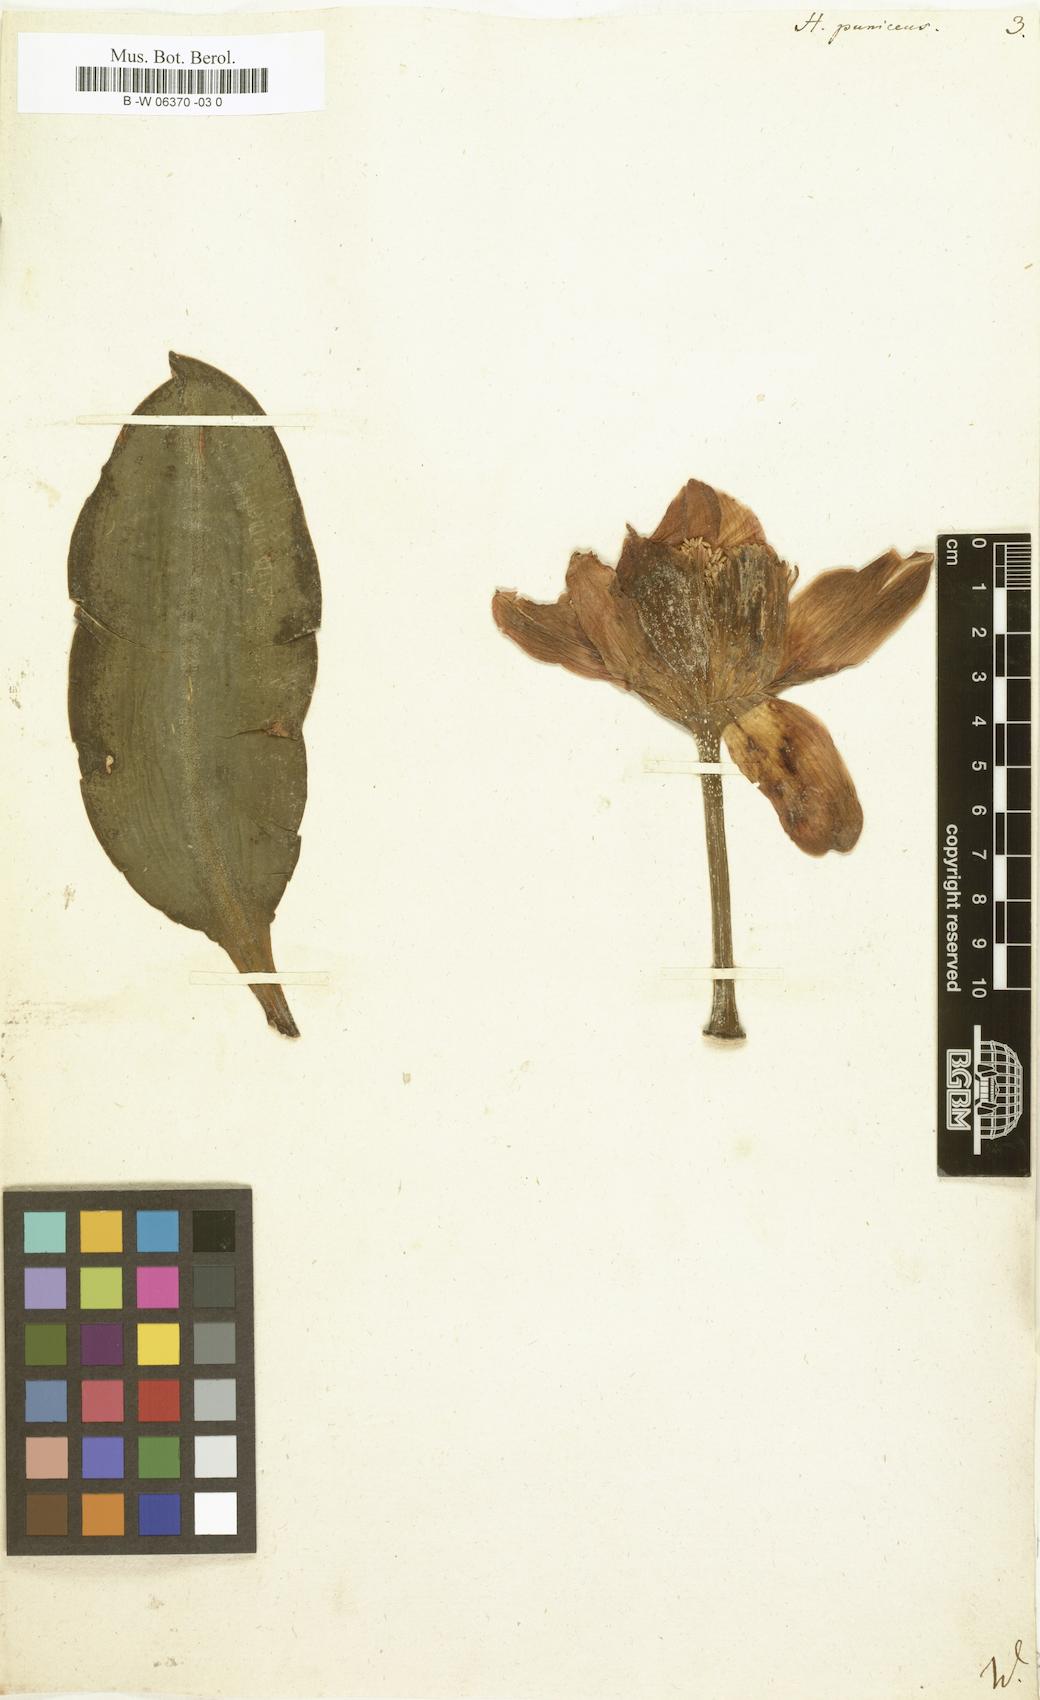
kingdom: Plantae
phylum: Tracheophyta
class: Liliopsida
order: Asparagales
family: Amaryllidaceae
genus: Scadoxus
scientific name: Scadoxus puniceus
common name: Royal-paintbrush
